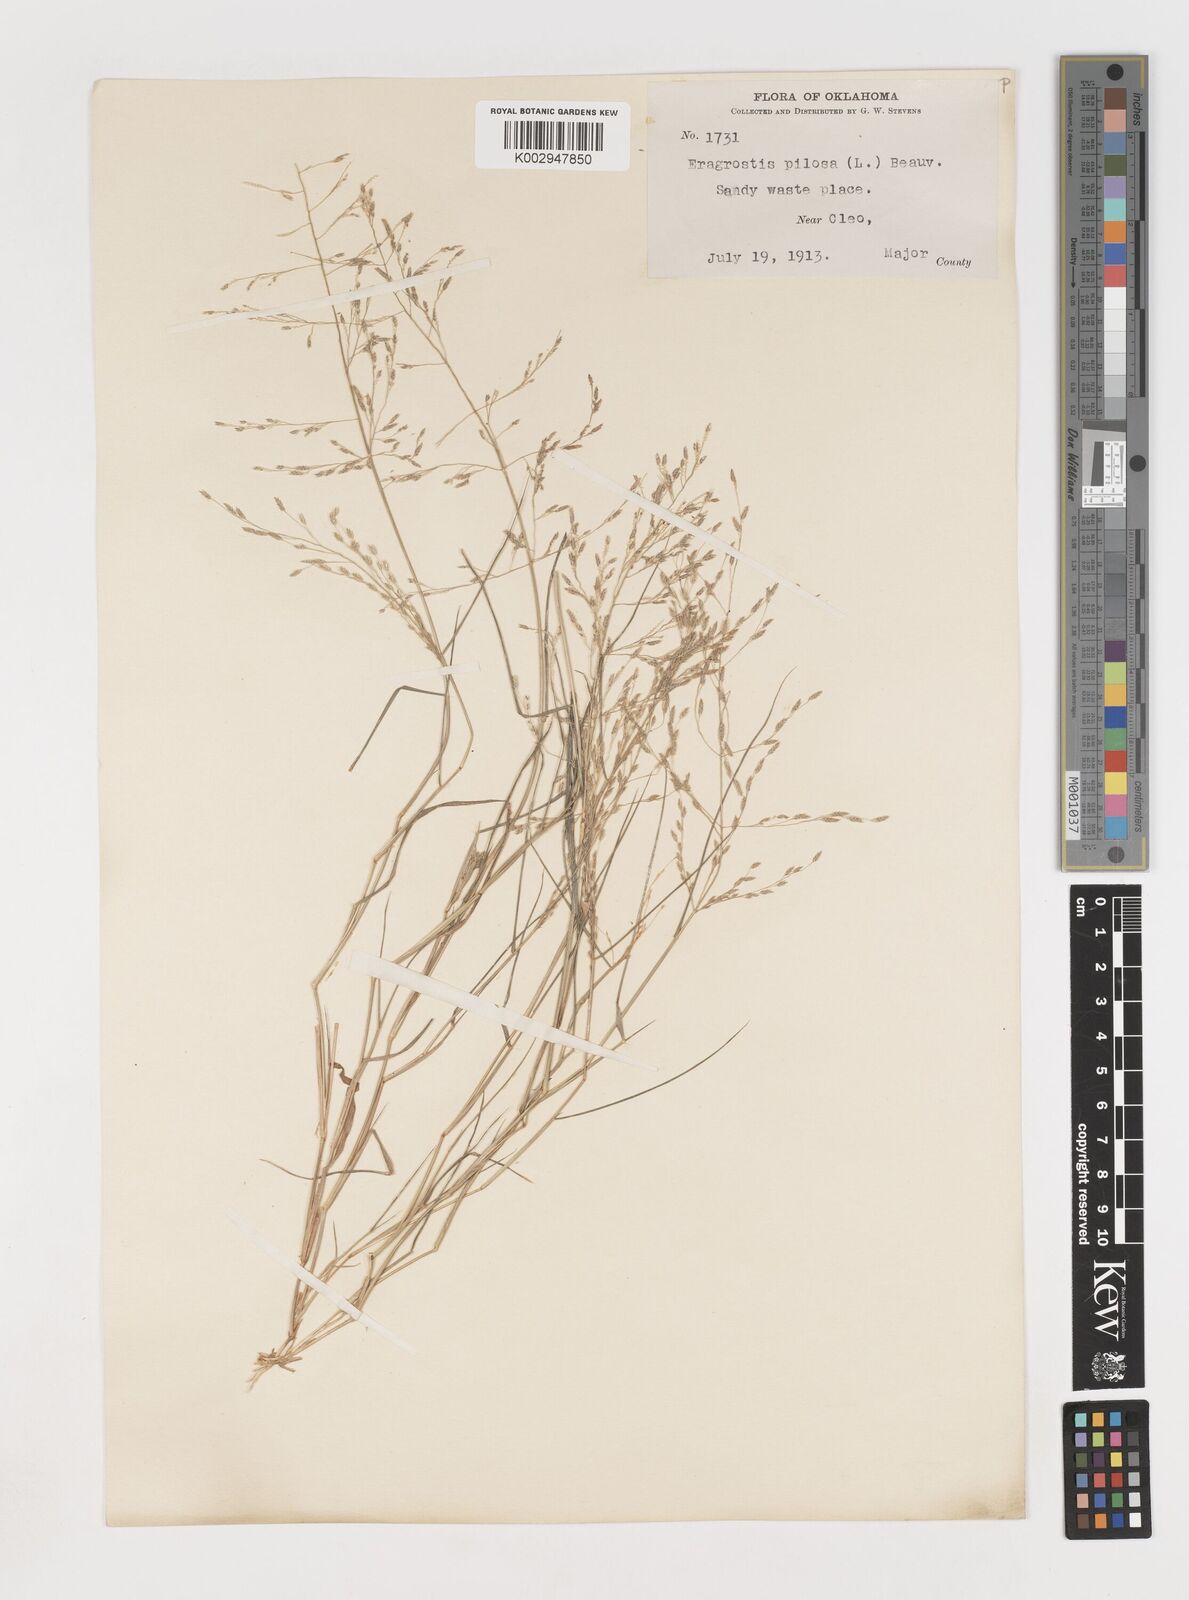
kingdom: Plantae
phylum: Tracheophyta
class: Liliopsida
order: Poales
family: Poaceae
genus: Eragrostis
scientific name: Eragrostis pectinacea
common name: Tufted lovegrass
